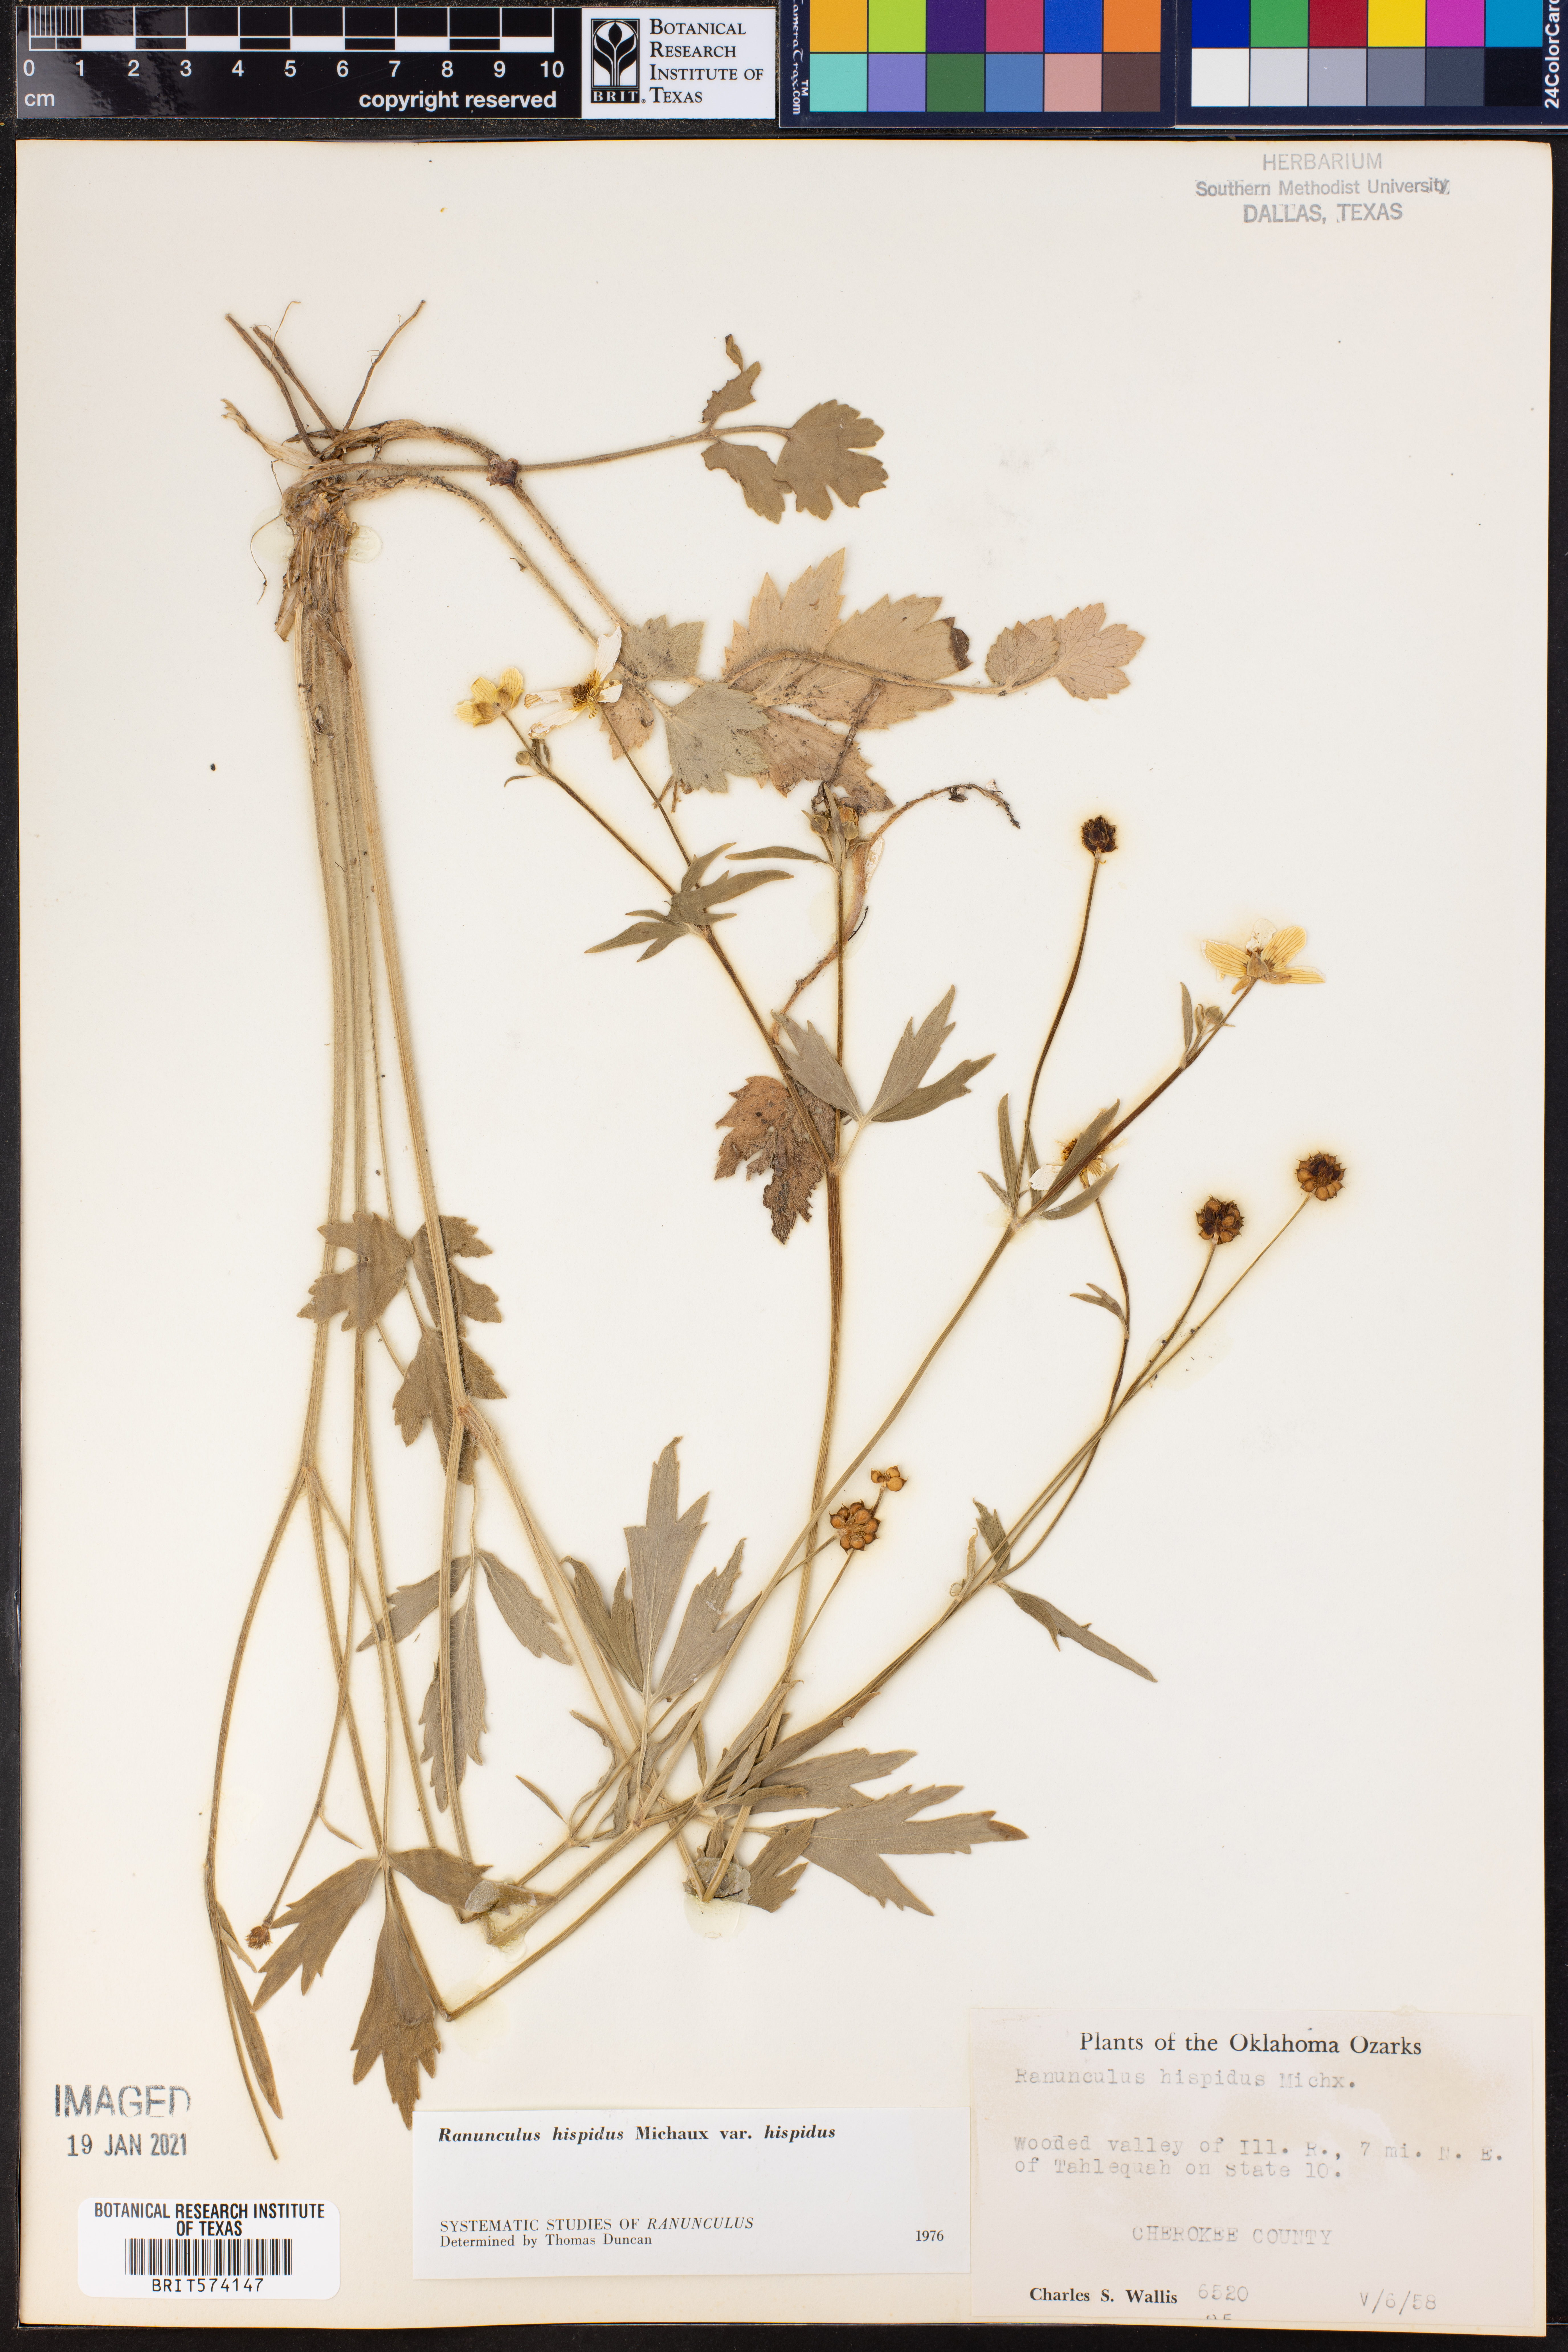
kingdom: Plantae
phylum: Tracheophyta
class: Magnoliopsida
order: Ranunculales
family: Ranunculaceae
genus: Ranunculus
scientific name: Ranunculus hispidus
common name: Bristly buttercup
